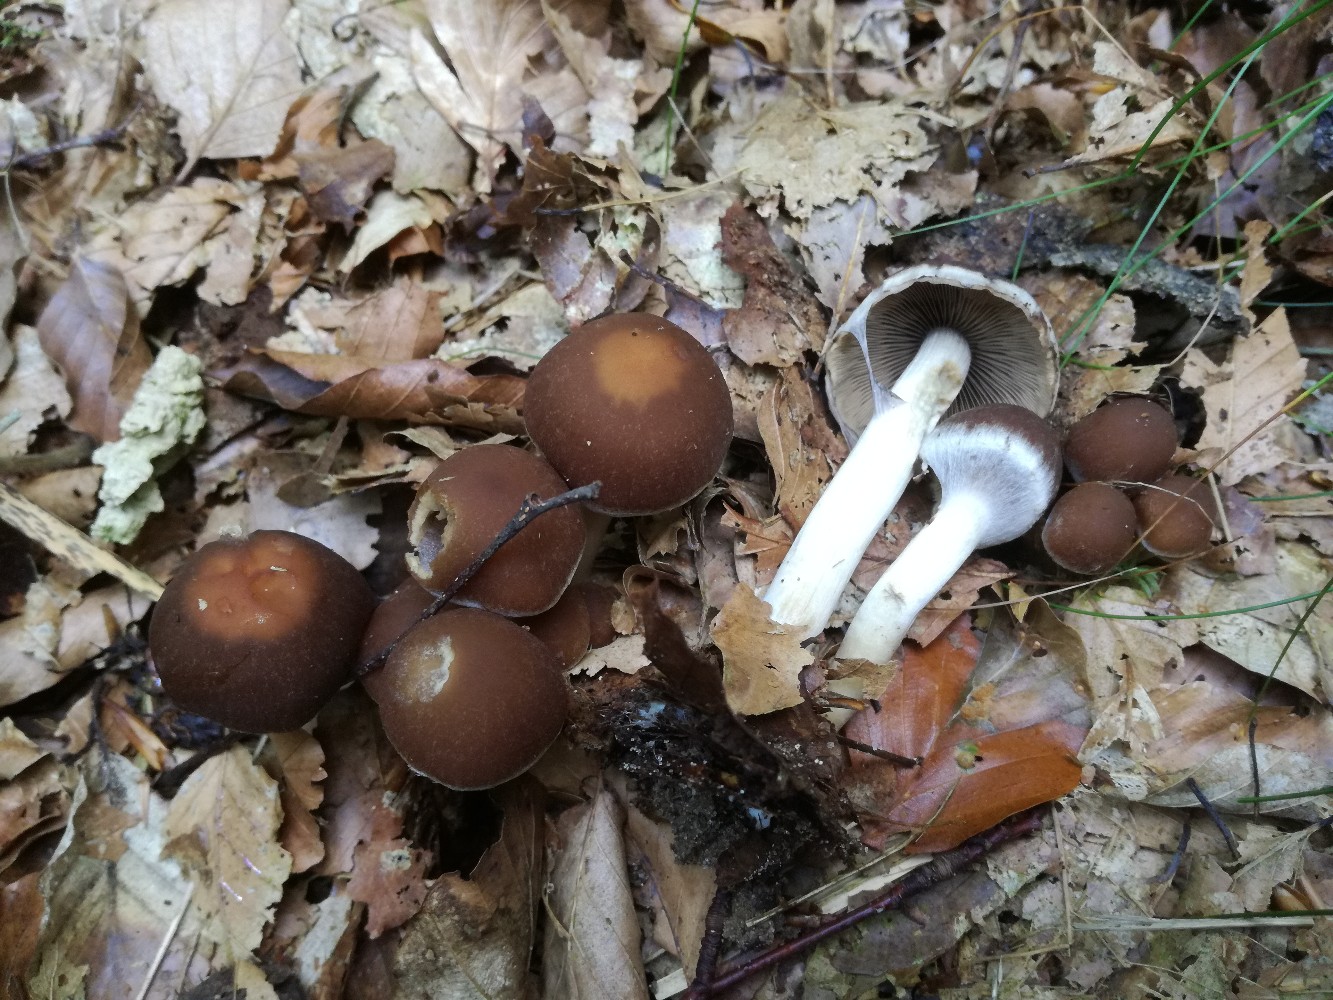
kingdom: Fungi
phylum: Basidiomycota
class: Agaricomycetes
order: Agaricales
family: Psathyrellaceae
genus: Psathyrella
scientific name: Psathyrella piluliformis
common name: lysstokket mørkhat
